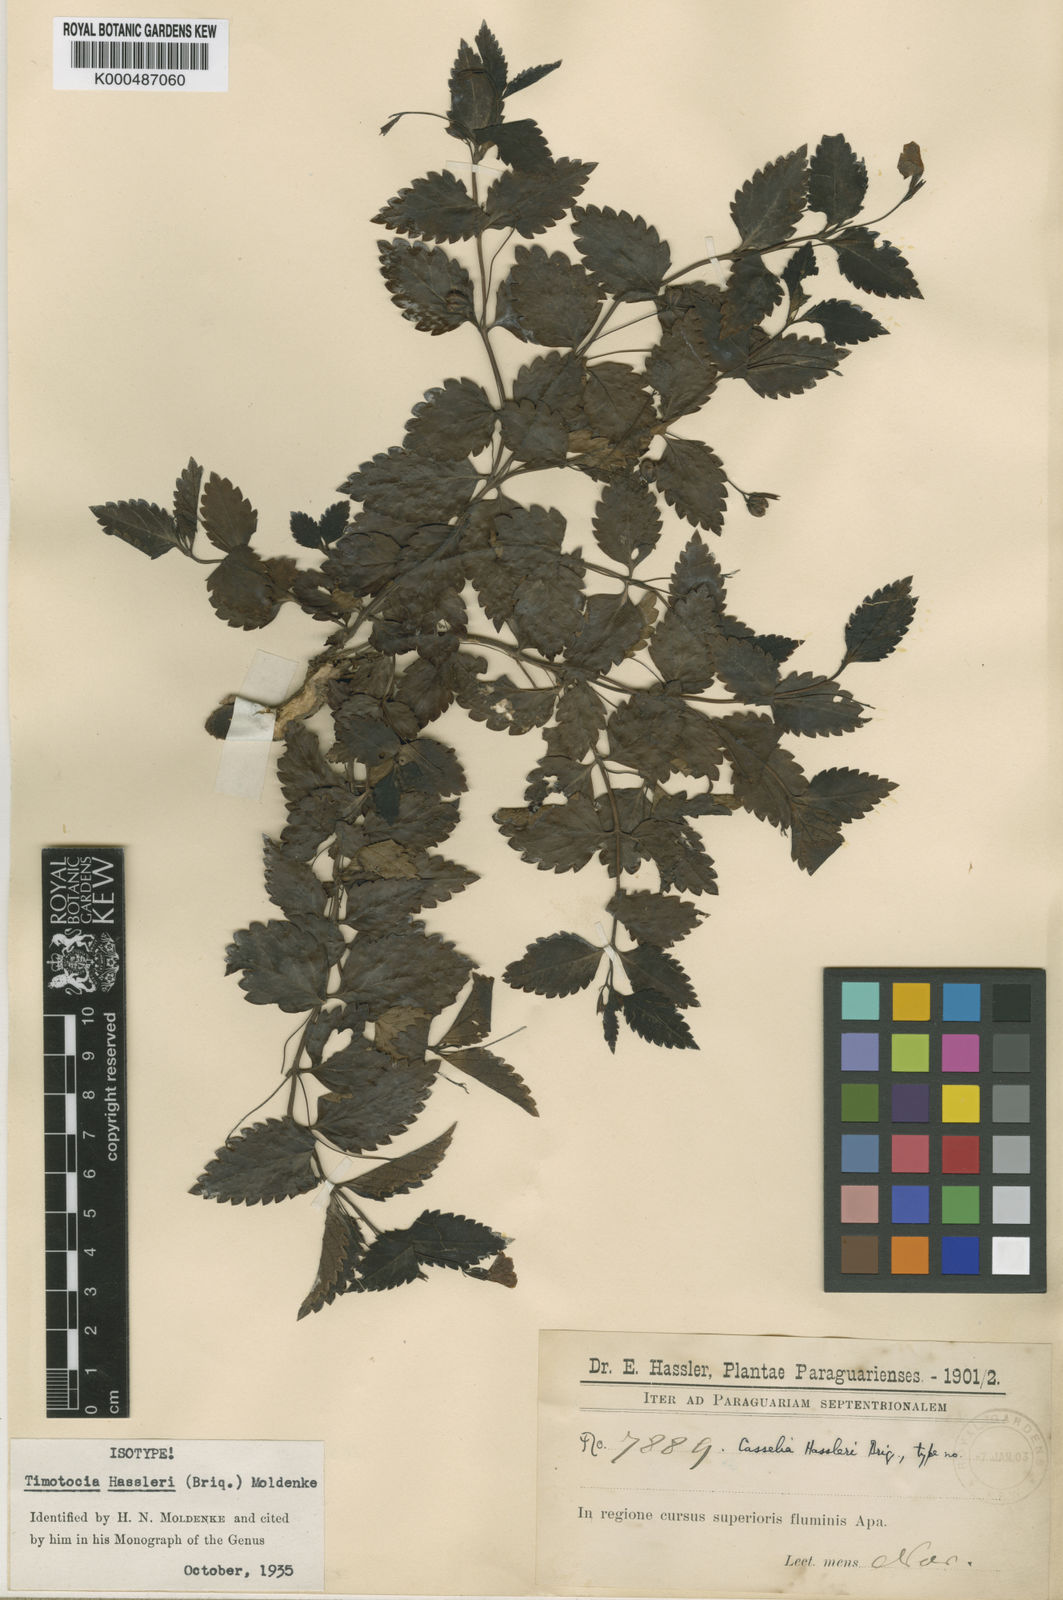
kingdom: Plantae
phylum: Tracheophyta
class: Magnoliopsida
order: Lamiales
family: Verbenaceae
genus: Casselia
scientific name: Casselia chamaedryfolia
